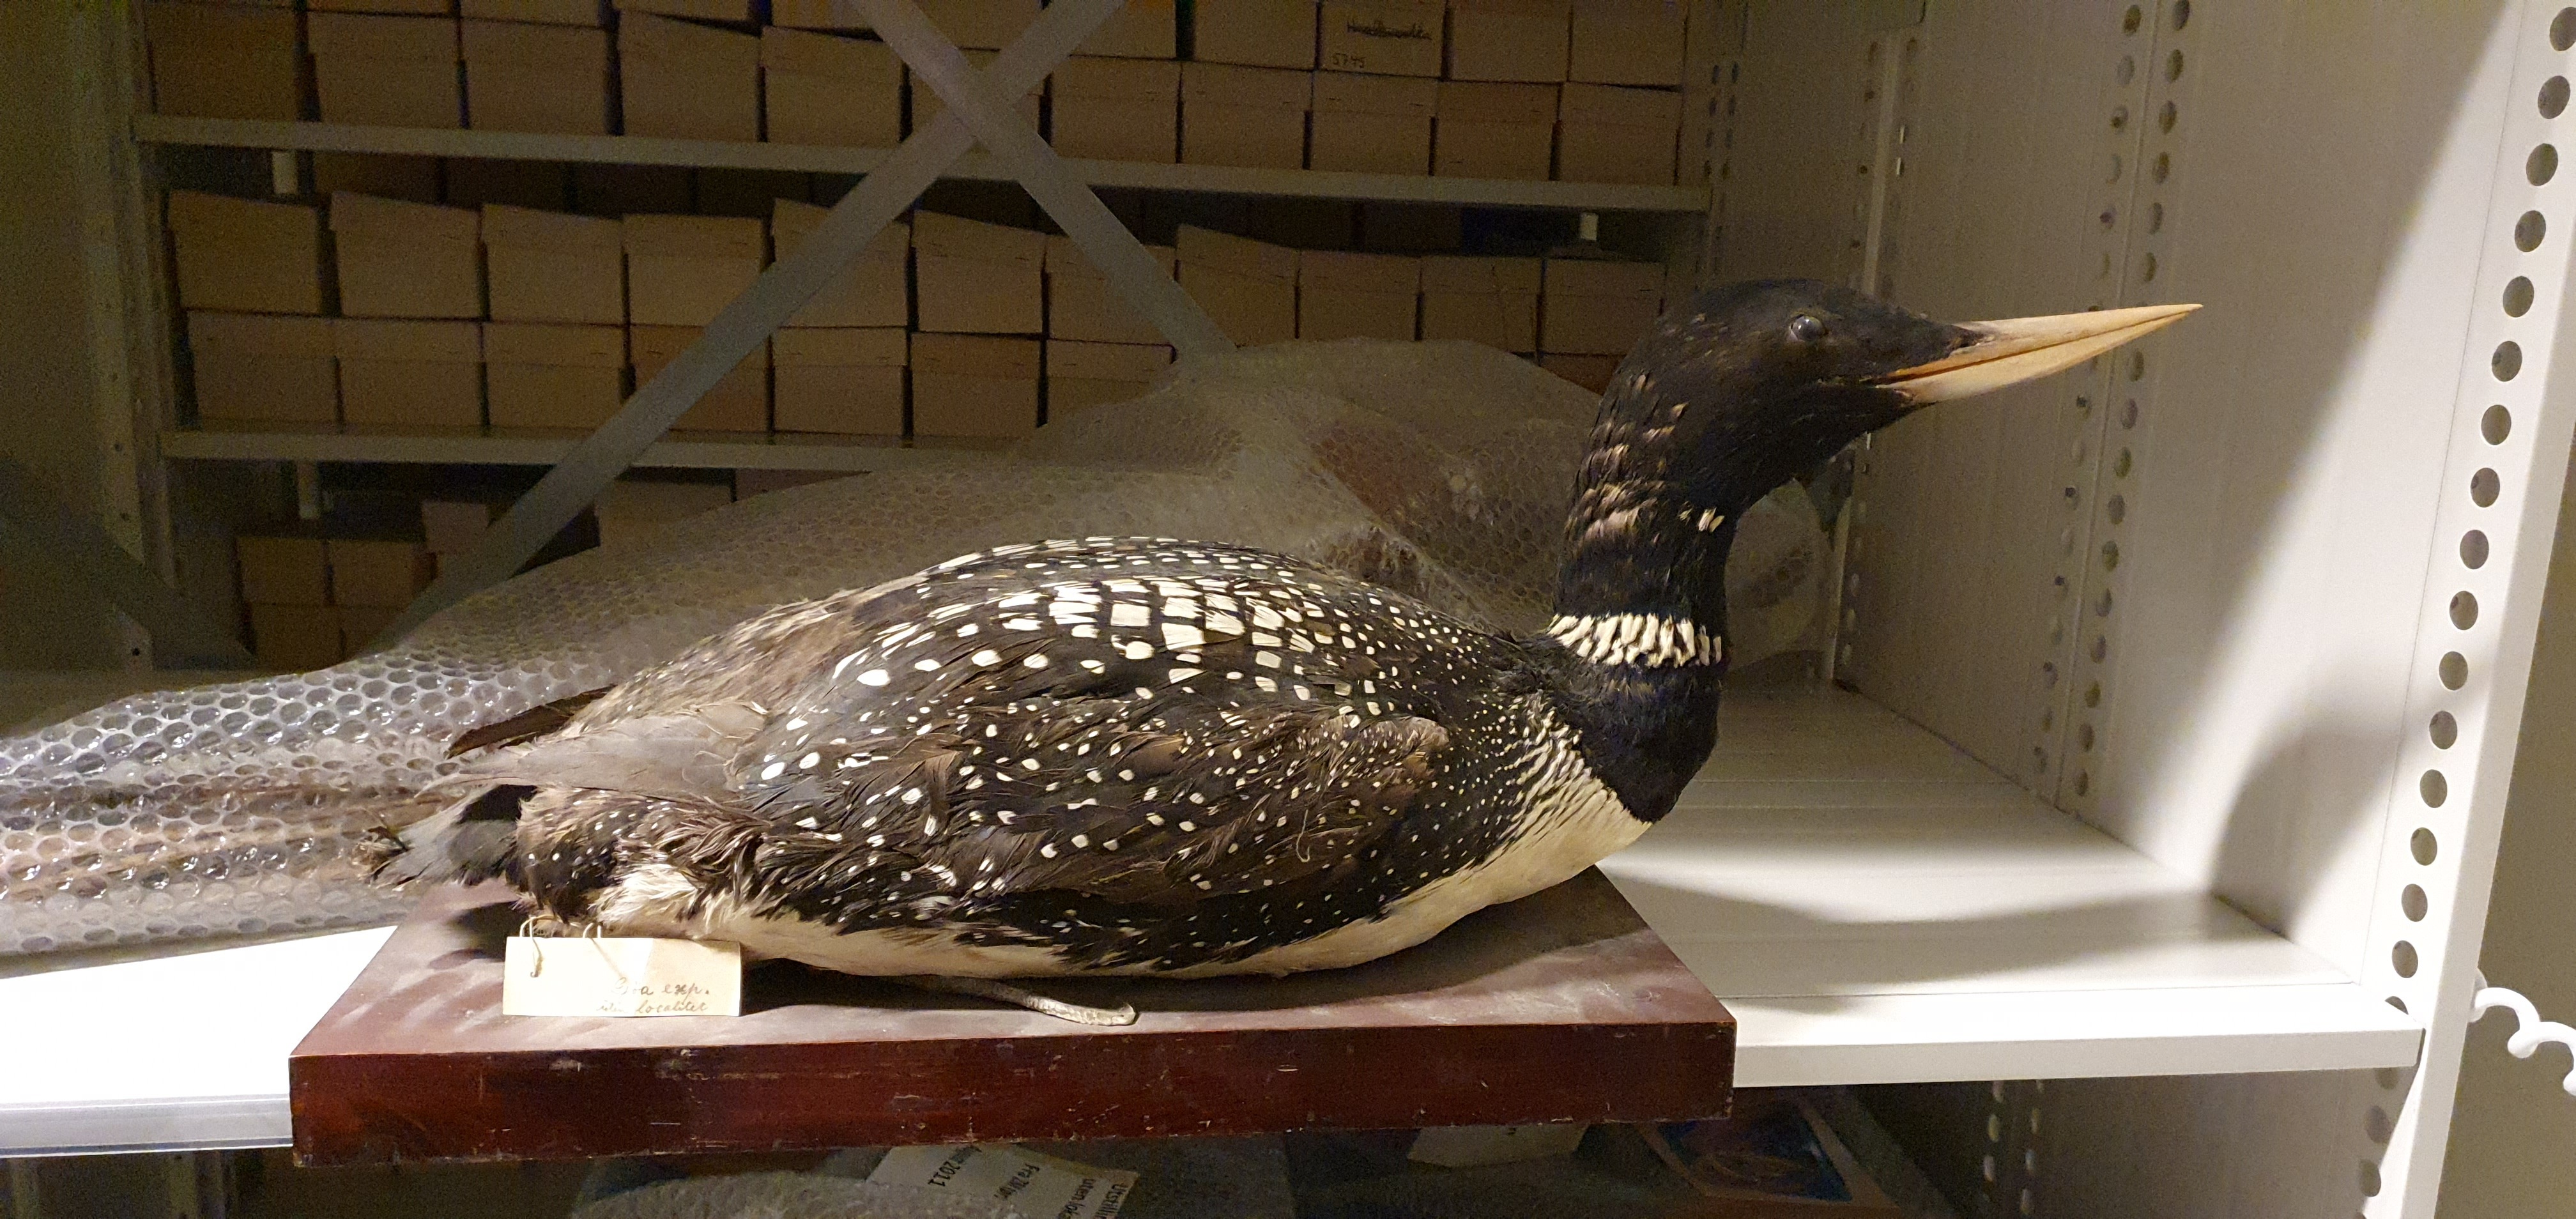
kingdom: Animalia
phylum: Chordata
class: Aves
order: Gaviiformes
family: Gaviidae
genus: Gavia
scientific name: Gavia adamsii
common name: Yellow-billed loon
